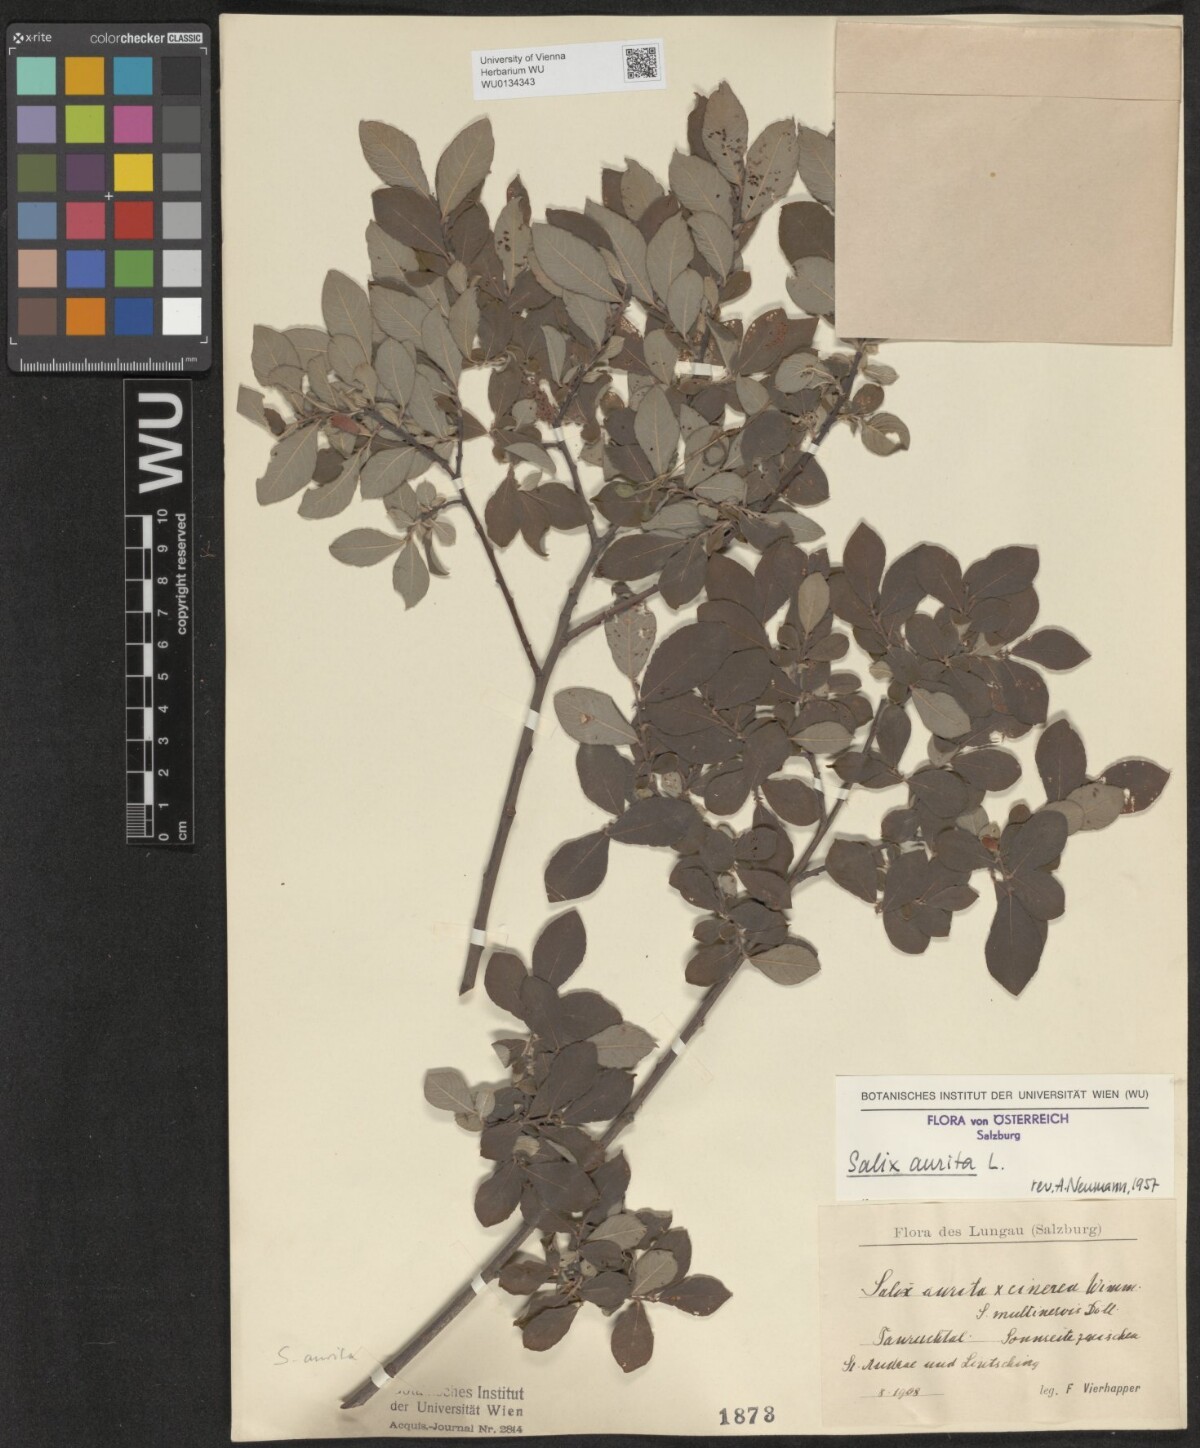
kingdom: Plantae
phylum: Tracheophyta
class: Magnoliopsida
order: Malpighiales
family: Salicaceae
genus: Salix
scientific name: Salix aurita
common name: Eared willow
